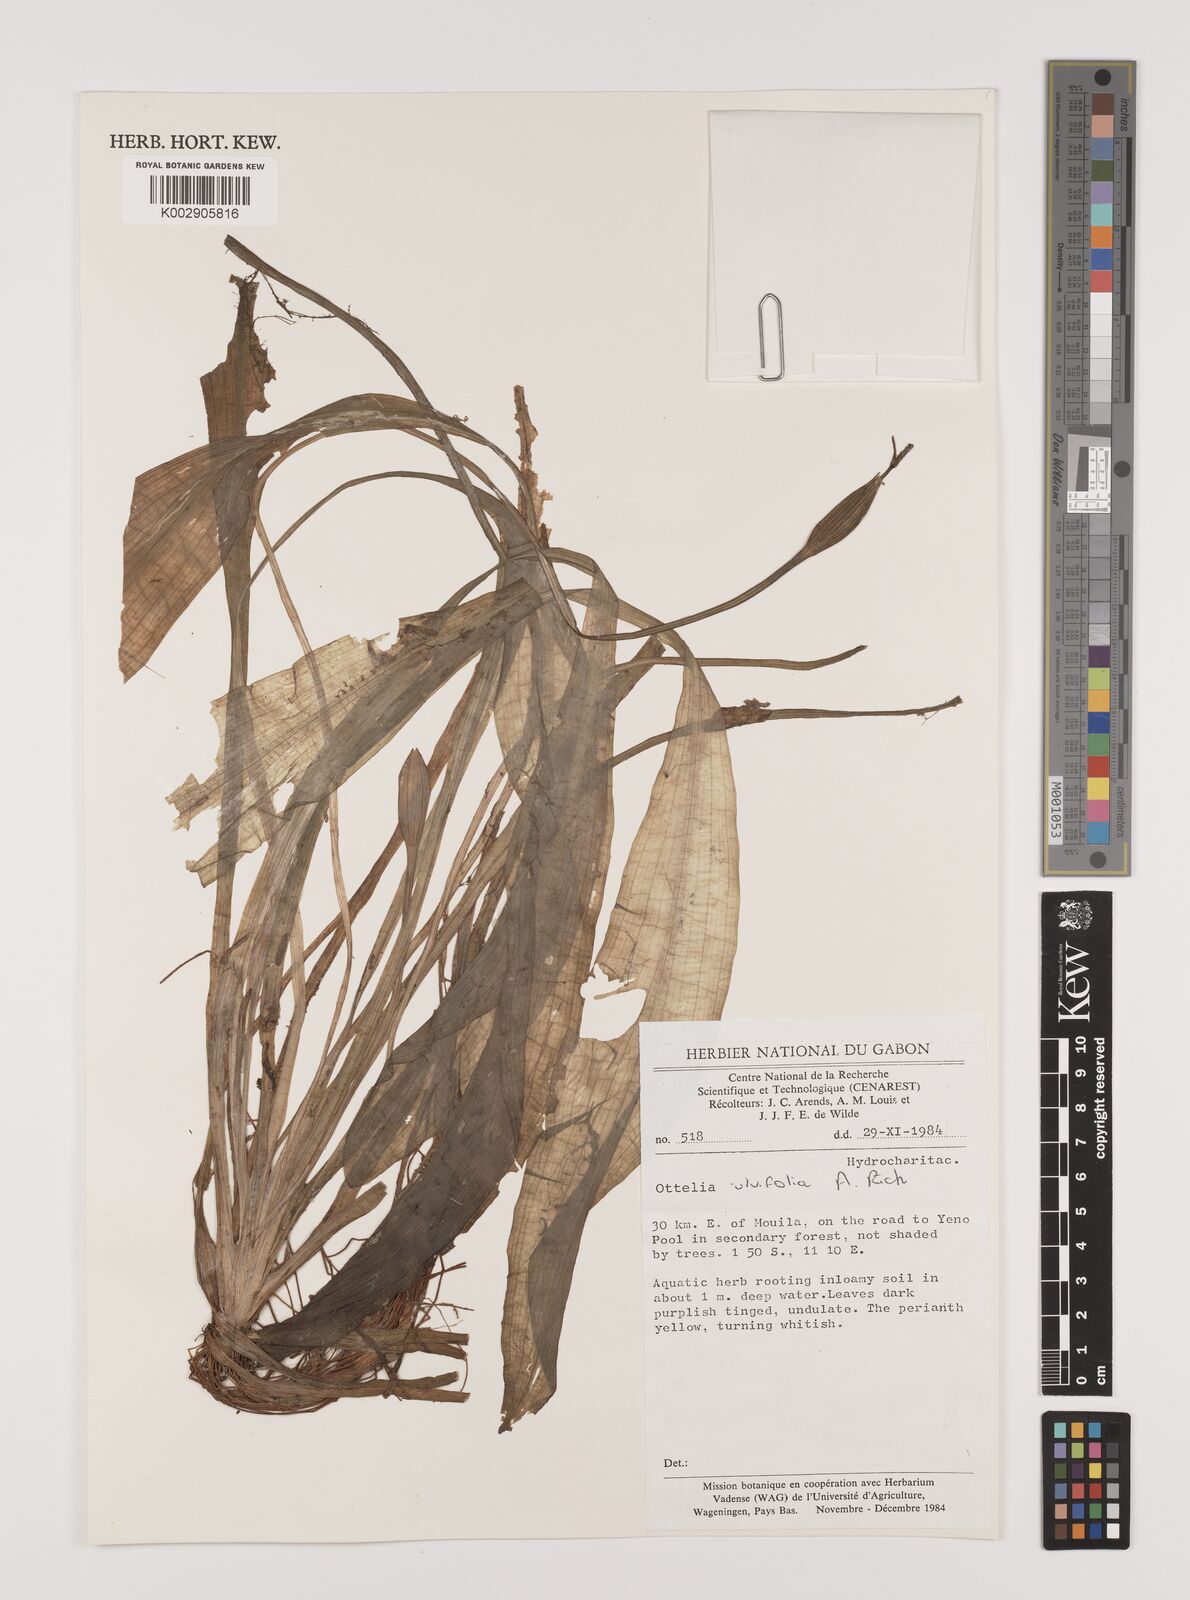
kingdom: Plantae
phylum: Tracheophyta
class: Liliopsida
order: Alismatales
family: Hydrocharitaceae
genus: Ottelia
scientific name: Ottelia ulvifolia
